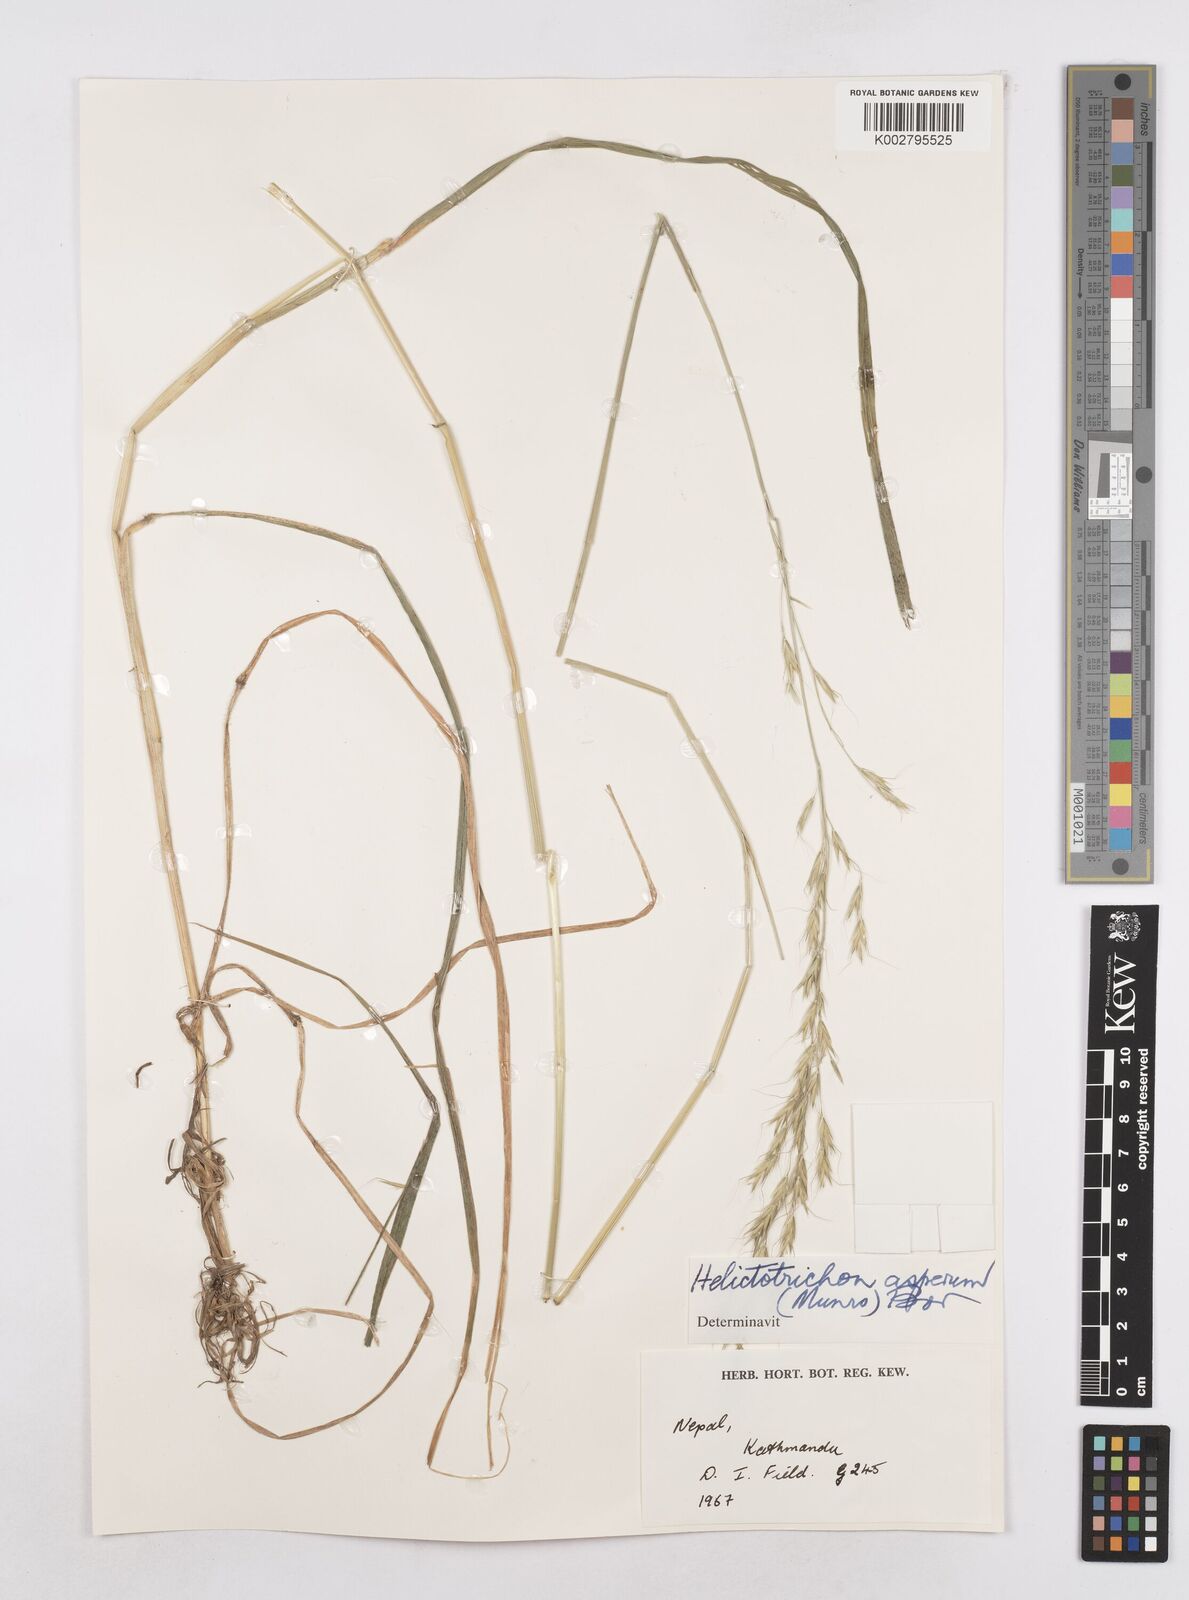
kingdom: Plantae
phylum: Tracheophyta
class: Liliopsida
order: Poales
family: Poaceae
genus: Trisetopsis
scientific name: Trisetopsis junghuhnii
